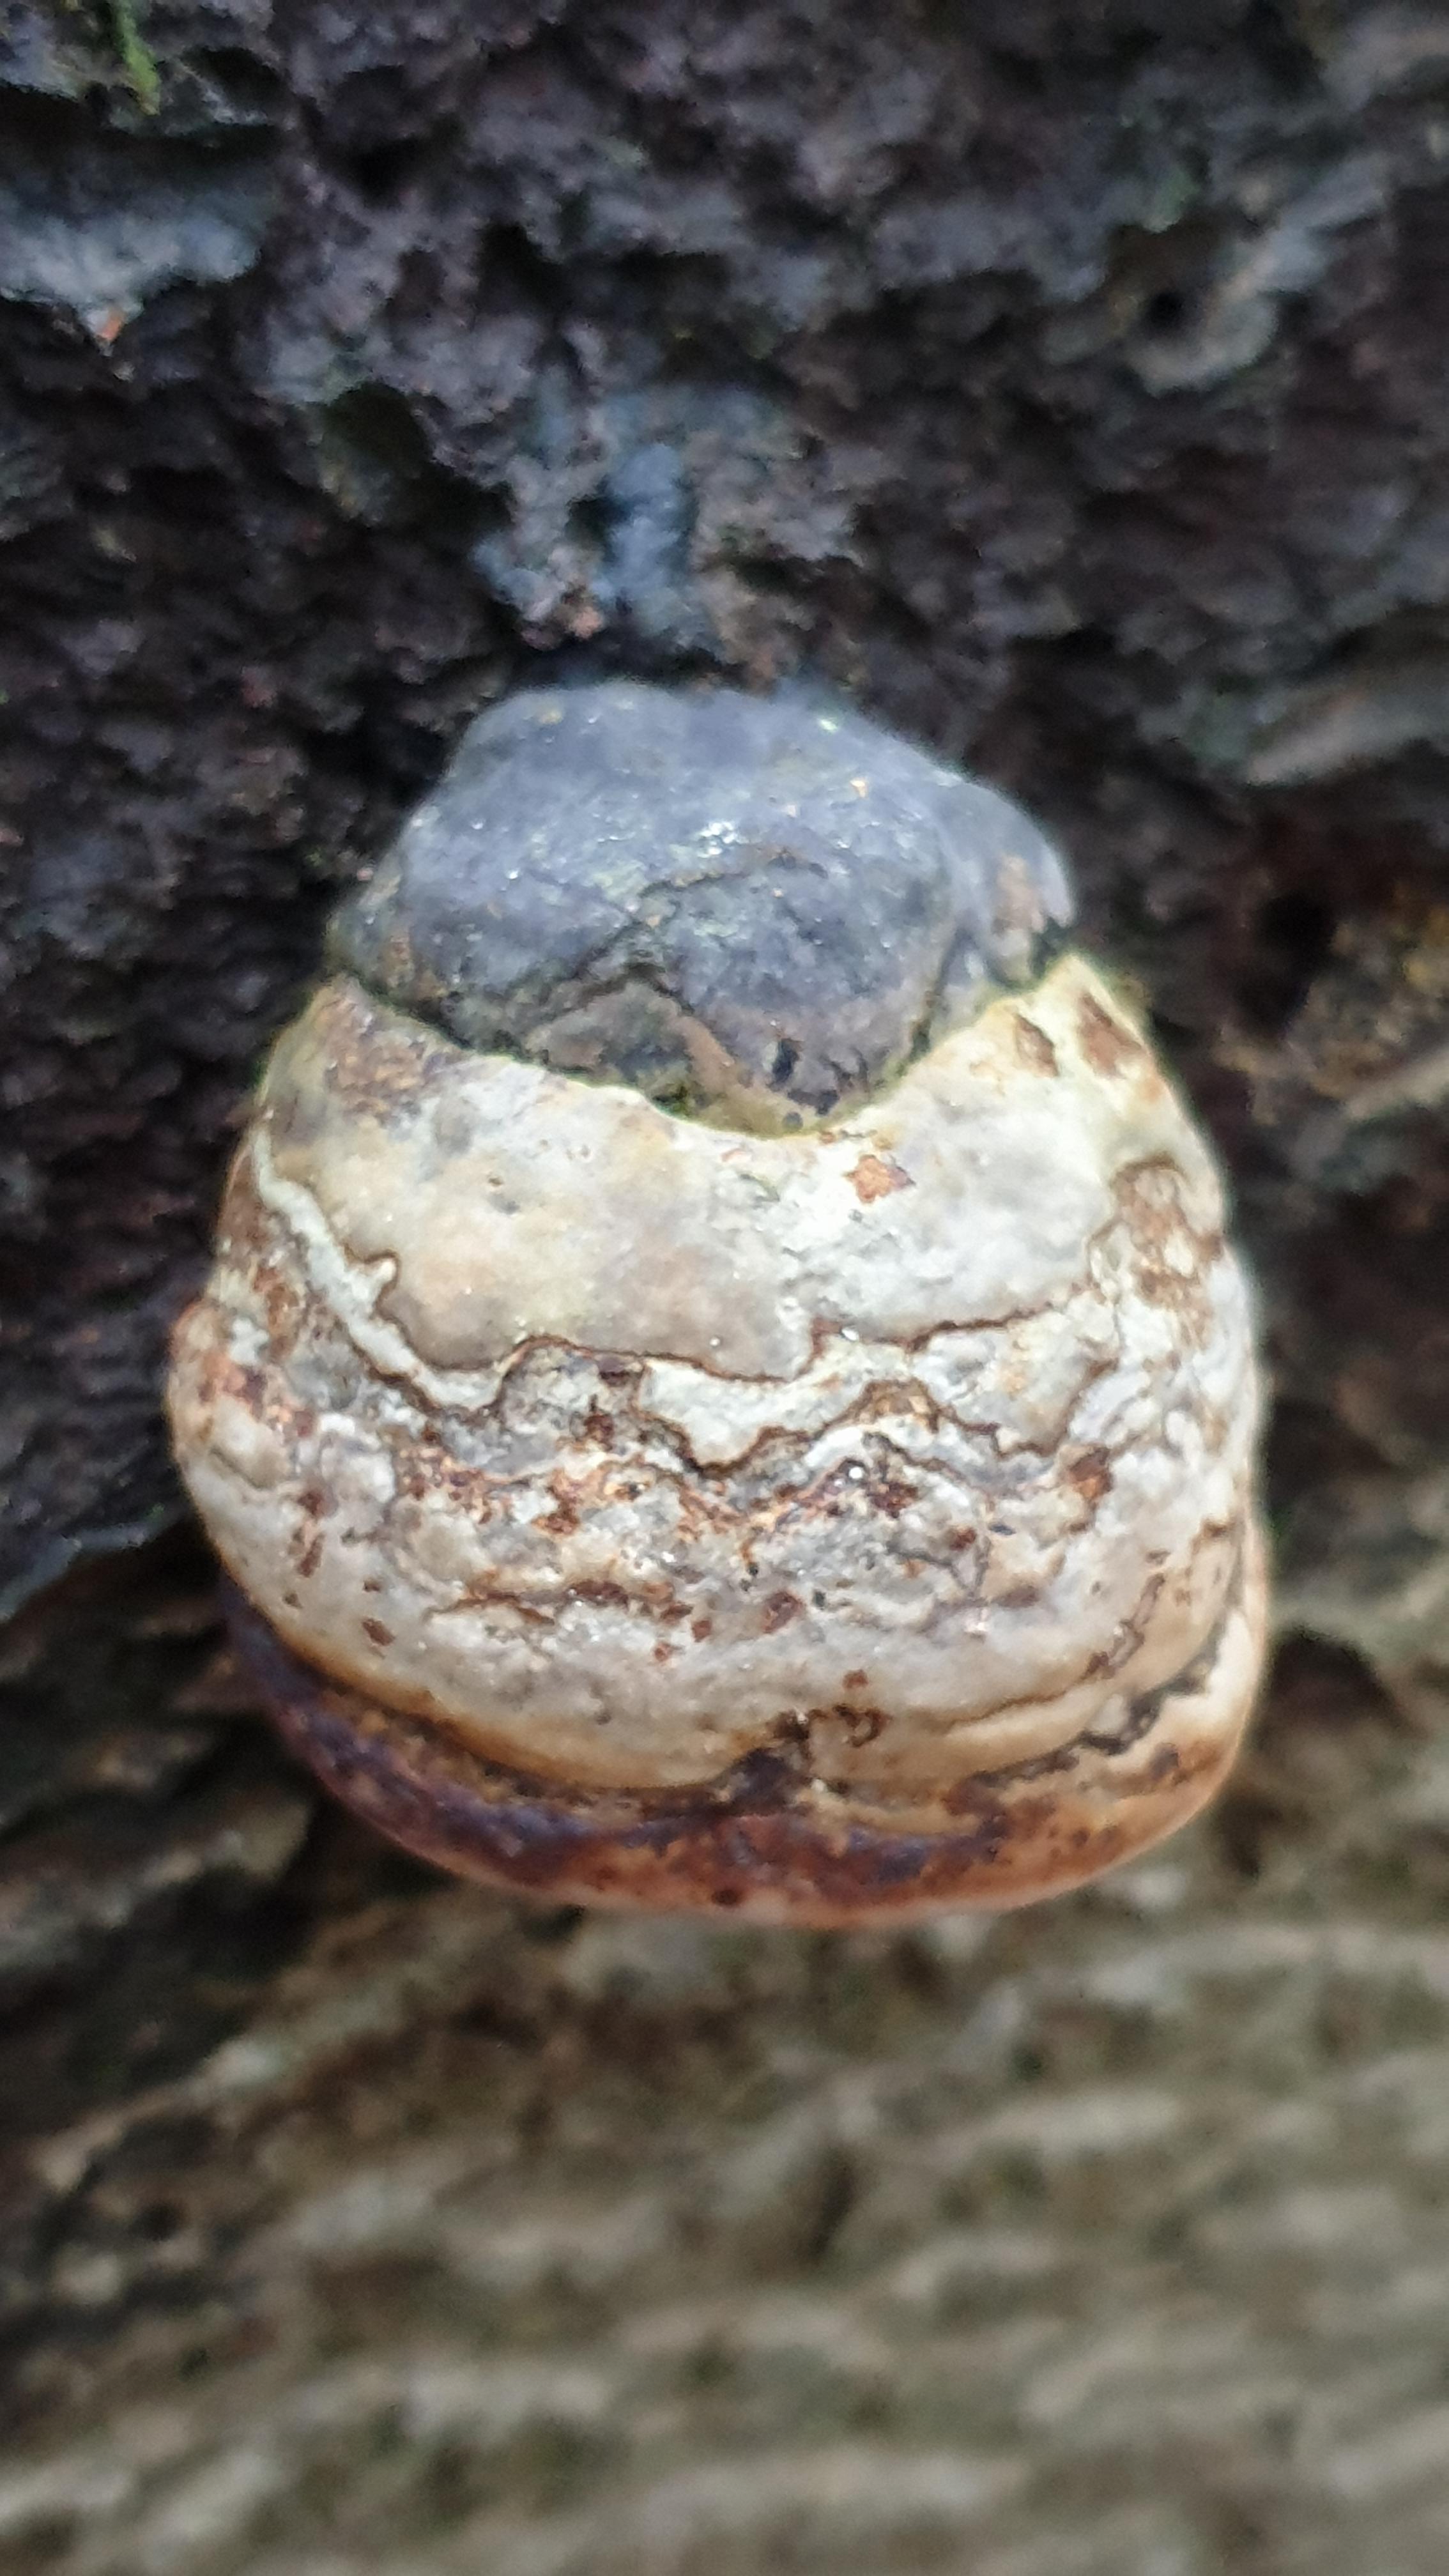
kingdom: Fungi
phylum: Basidiomycota
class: Agaricomycetes
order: Polyporales
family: Polyporaceae
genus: Fomes
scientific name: Fomes fomentarius
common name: tøndersvamp
